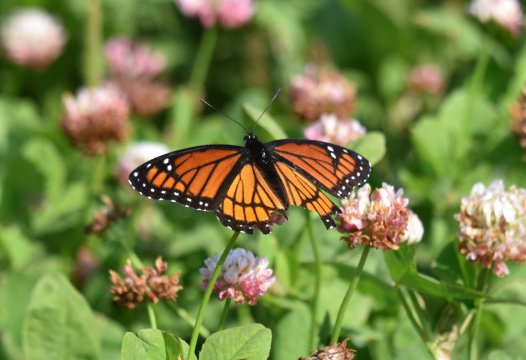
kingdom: Animalia
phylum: Arthropoda
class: Insecta
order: Lepidoptera
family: Nymphalidae
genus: Limenitis
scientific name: Limenitis archippus
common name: Viceroy
